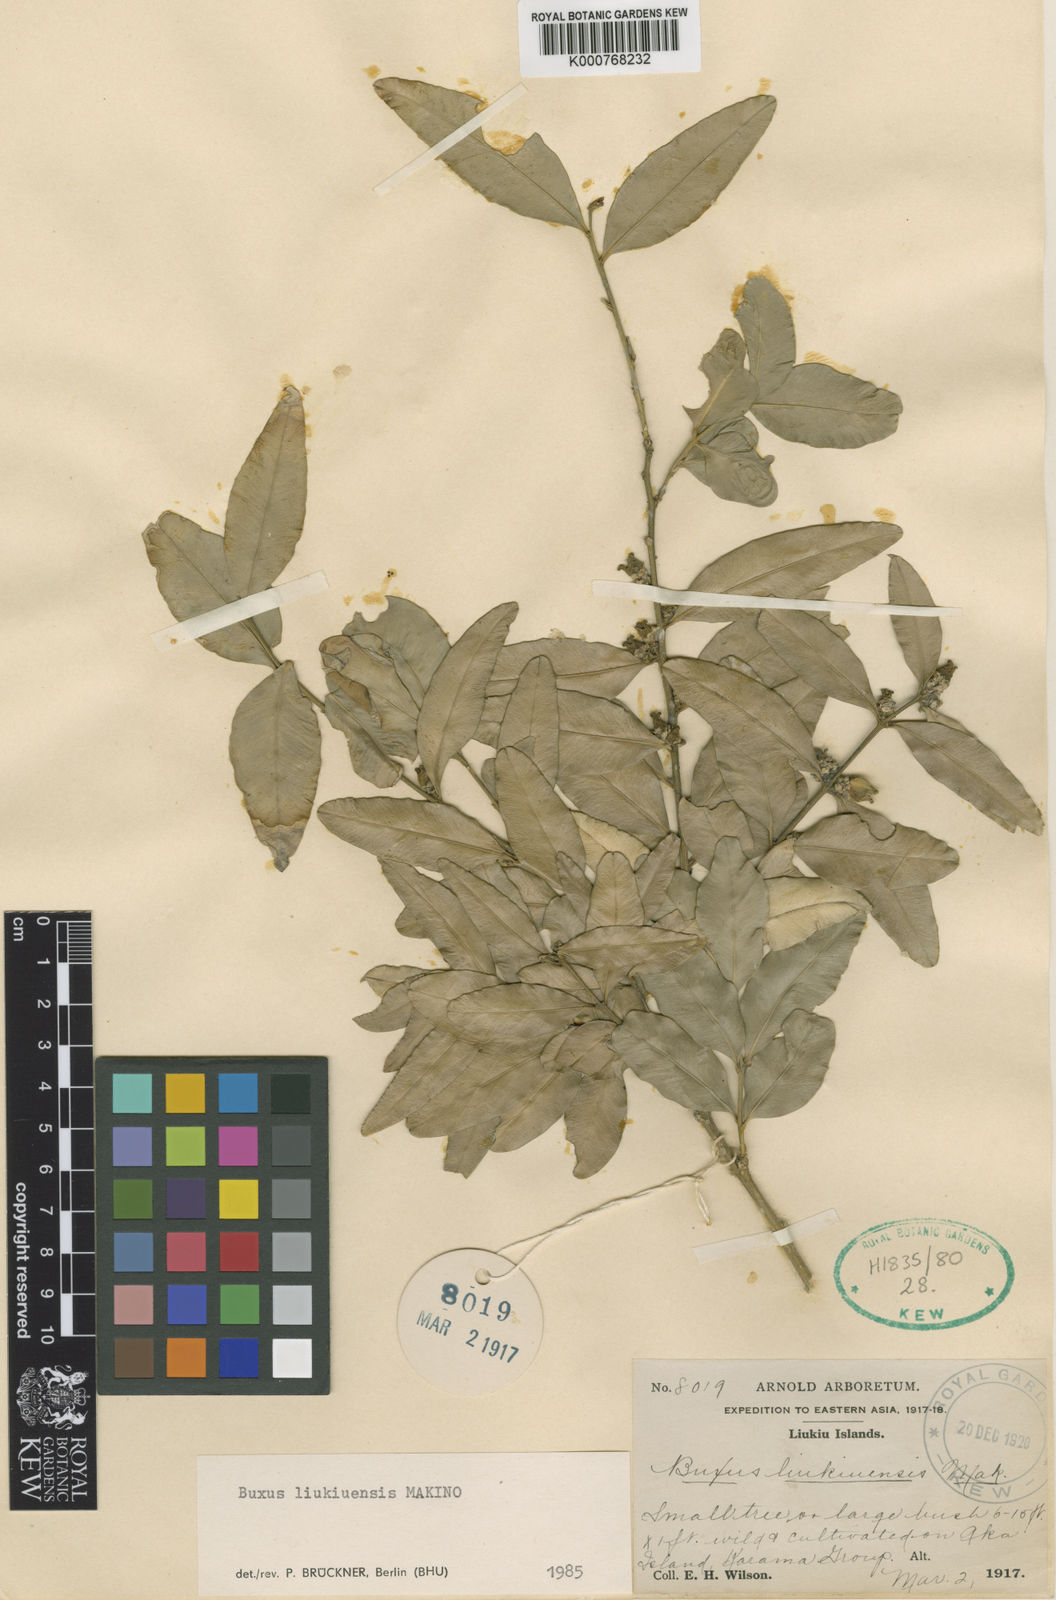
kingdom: Plantae
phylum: Tracheophyta
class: Magnoliopsida
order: Buxales
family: Buxaceae
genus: Buxus
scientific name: Buxus liukiuensis
